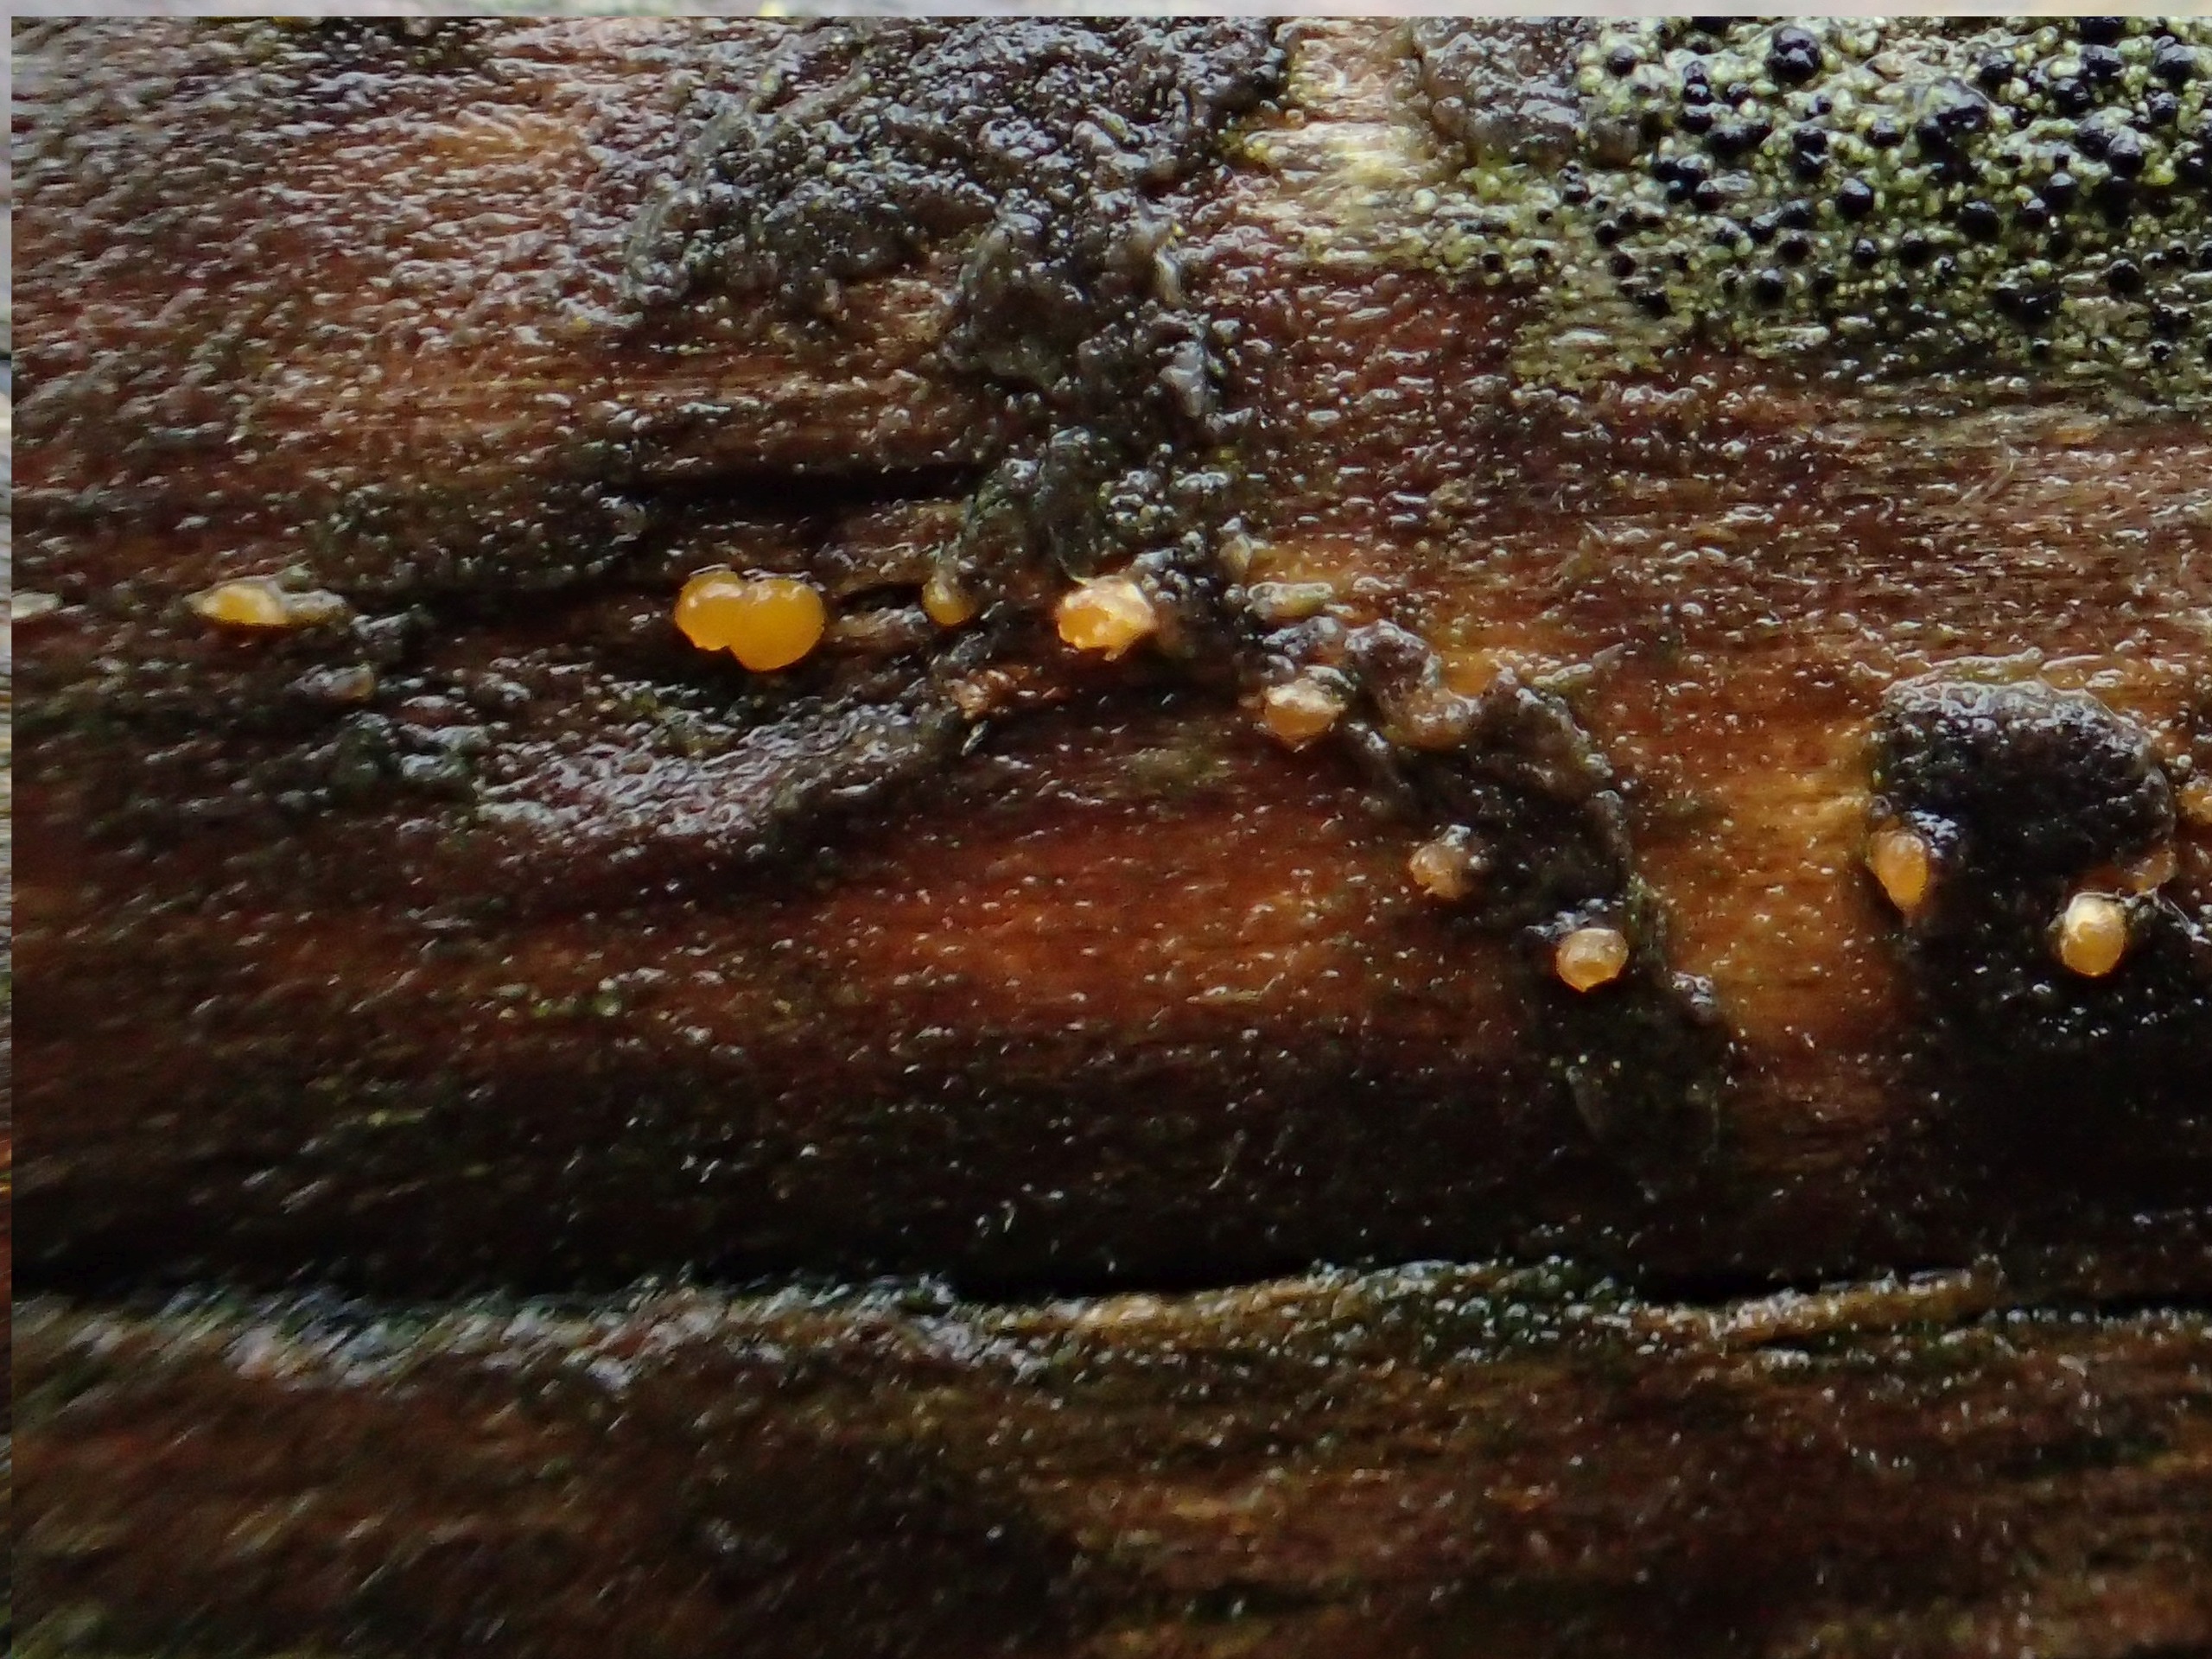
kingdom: Fungi
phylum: Basidiomycota
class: Dacrymycetes
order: Dacrymycetales
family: Dacrymycetaceae
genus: Dacrymyces
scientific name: Dacrymyces stillatus
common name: Almindelig tåresvamp
